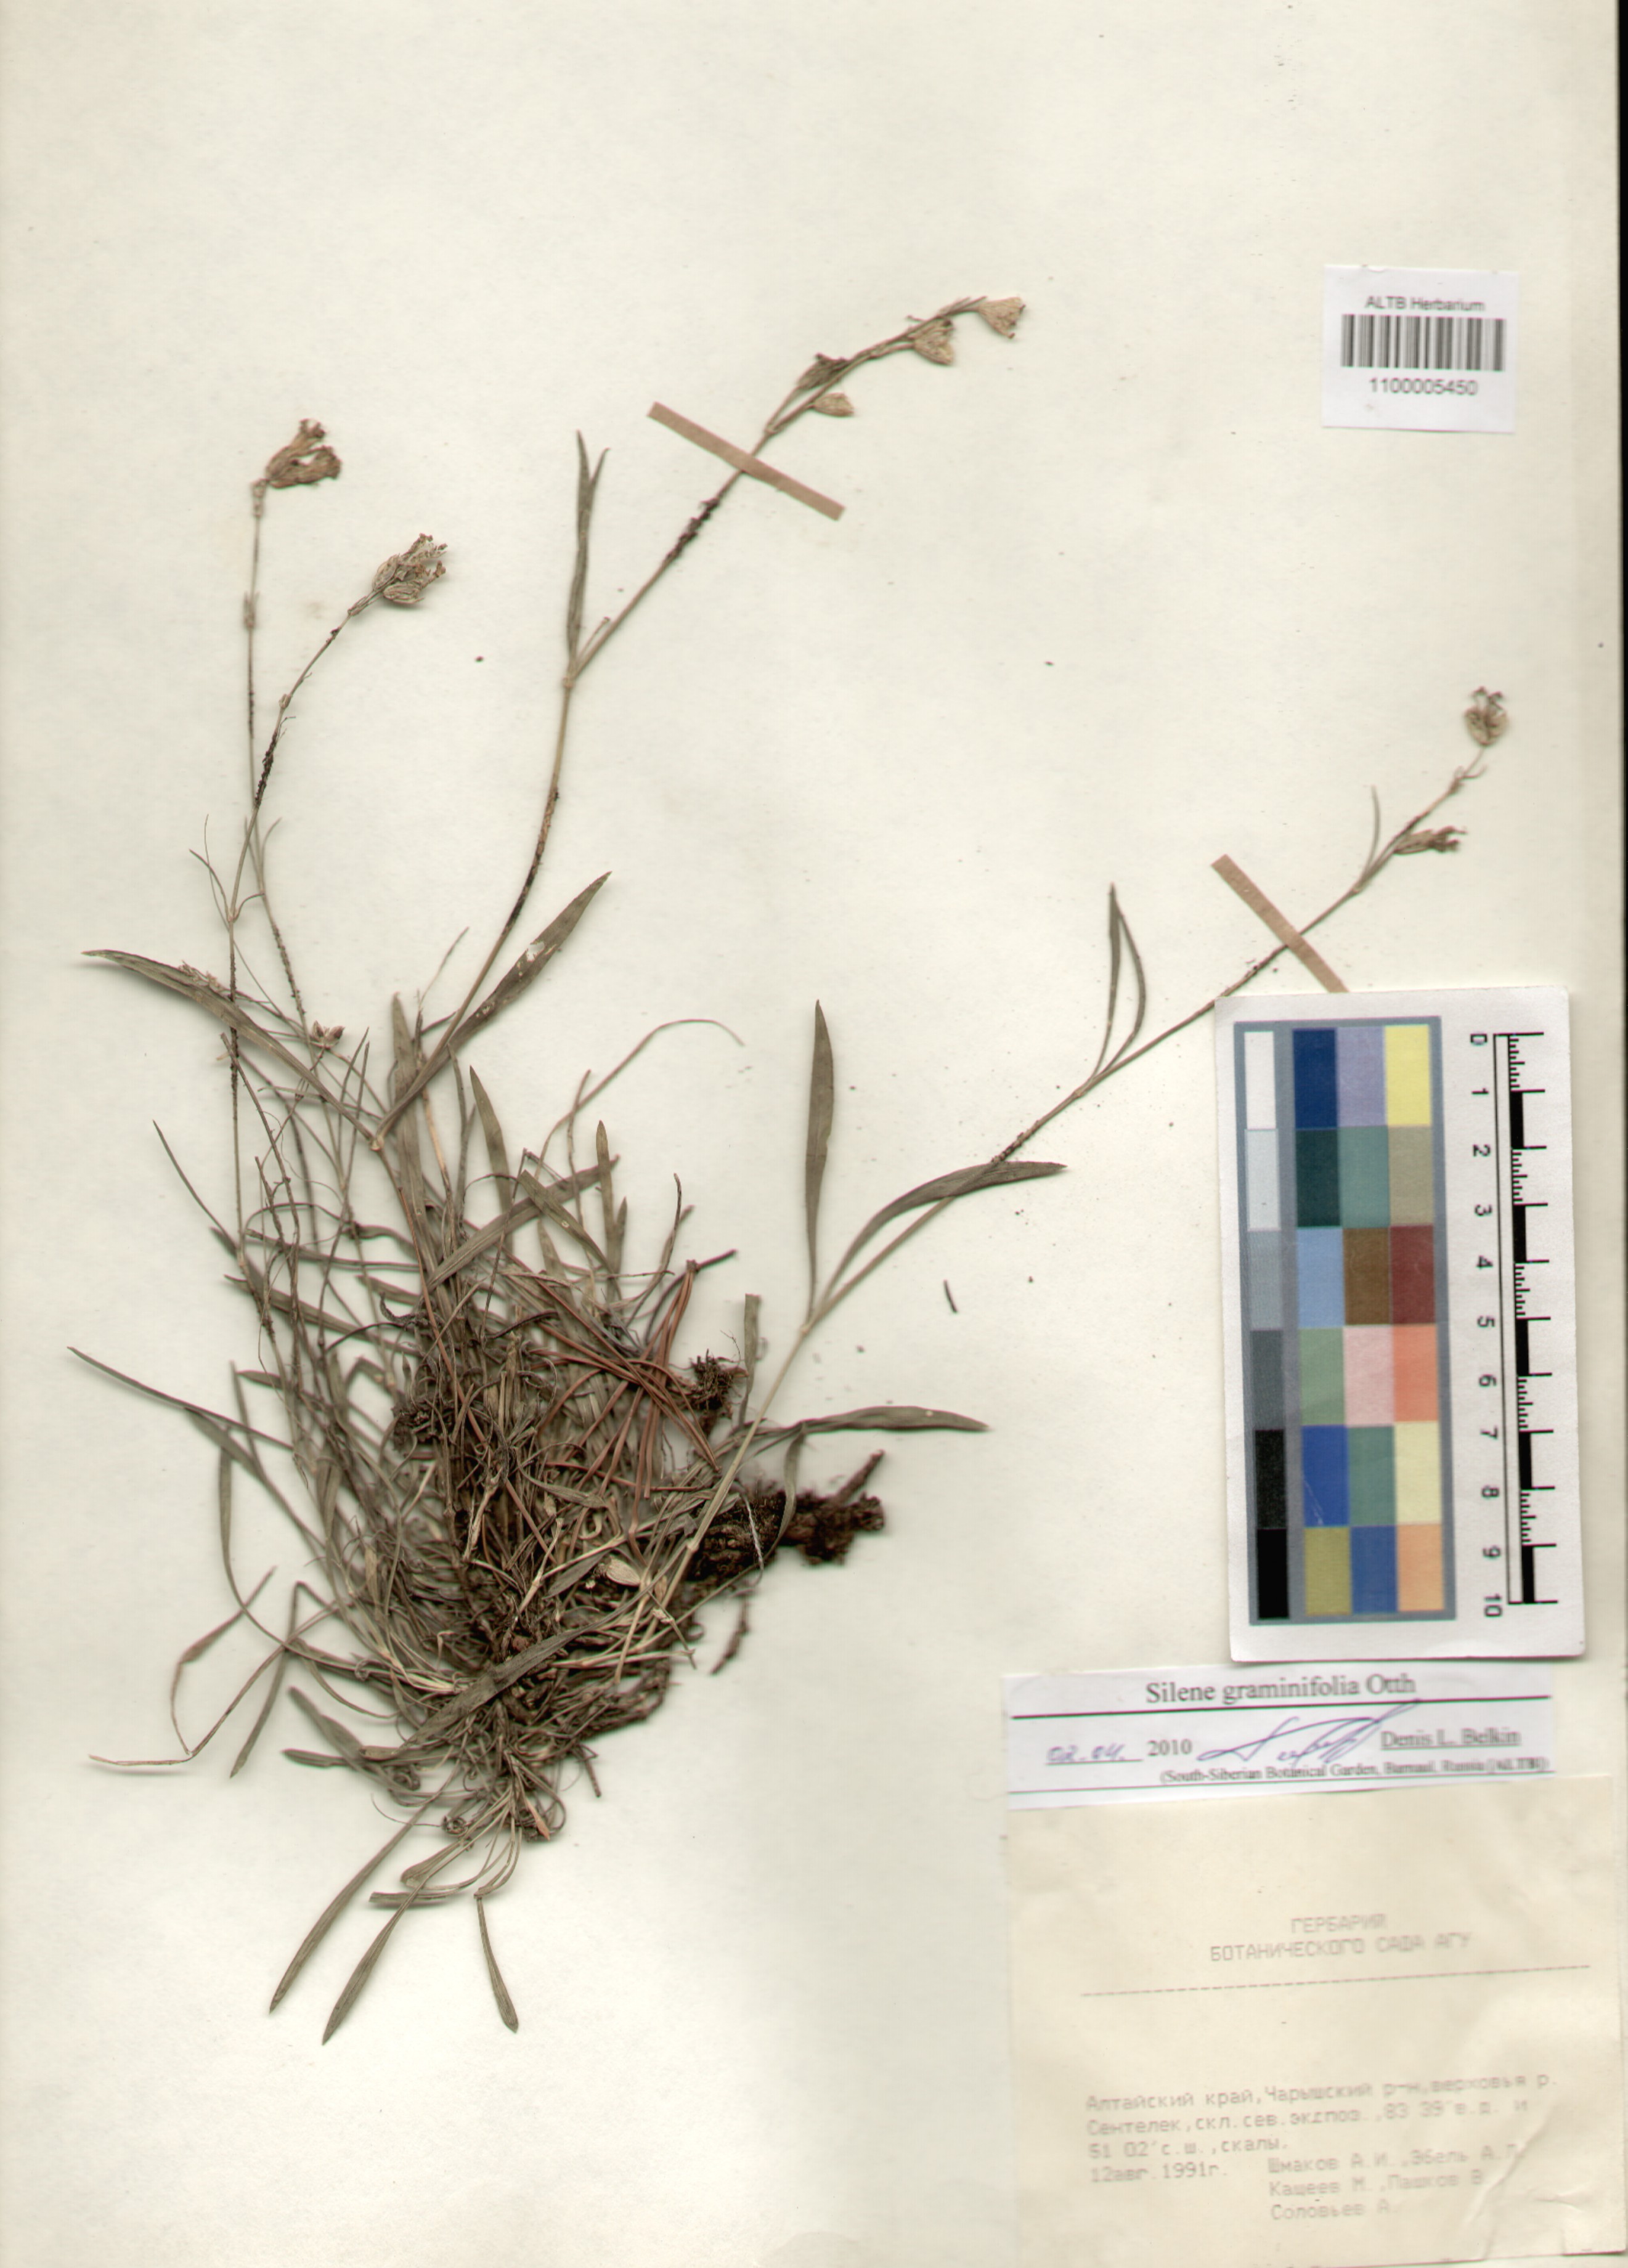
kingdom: Plantae
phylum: Tracheophyta
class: Magnoliopsida
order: Caryophyllales
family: Caryophyllaceae
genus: Silene
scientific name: Silene graminifolia
